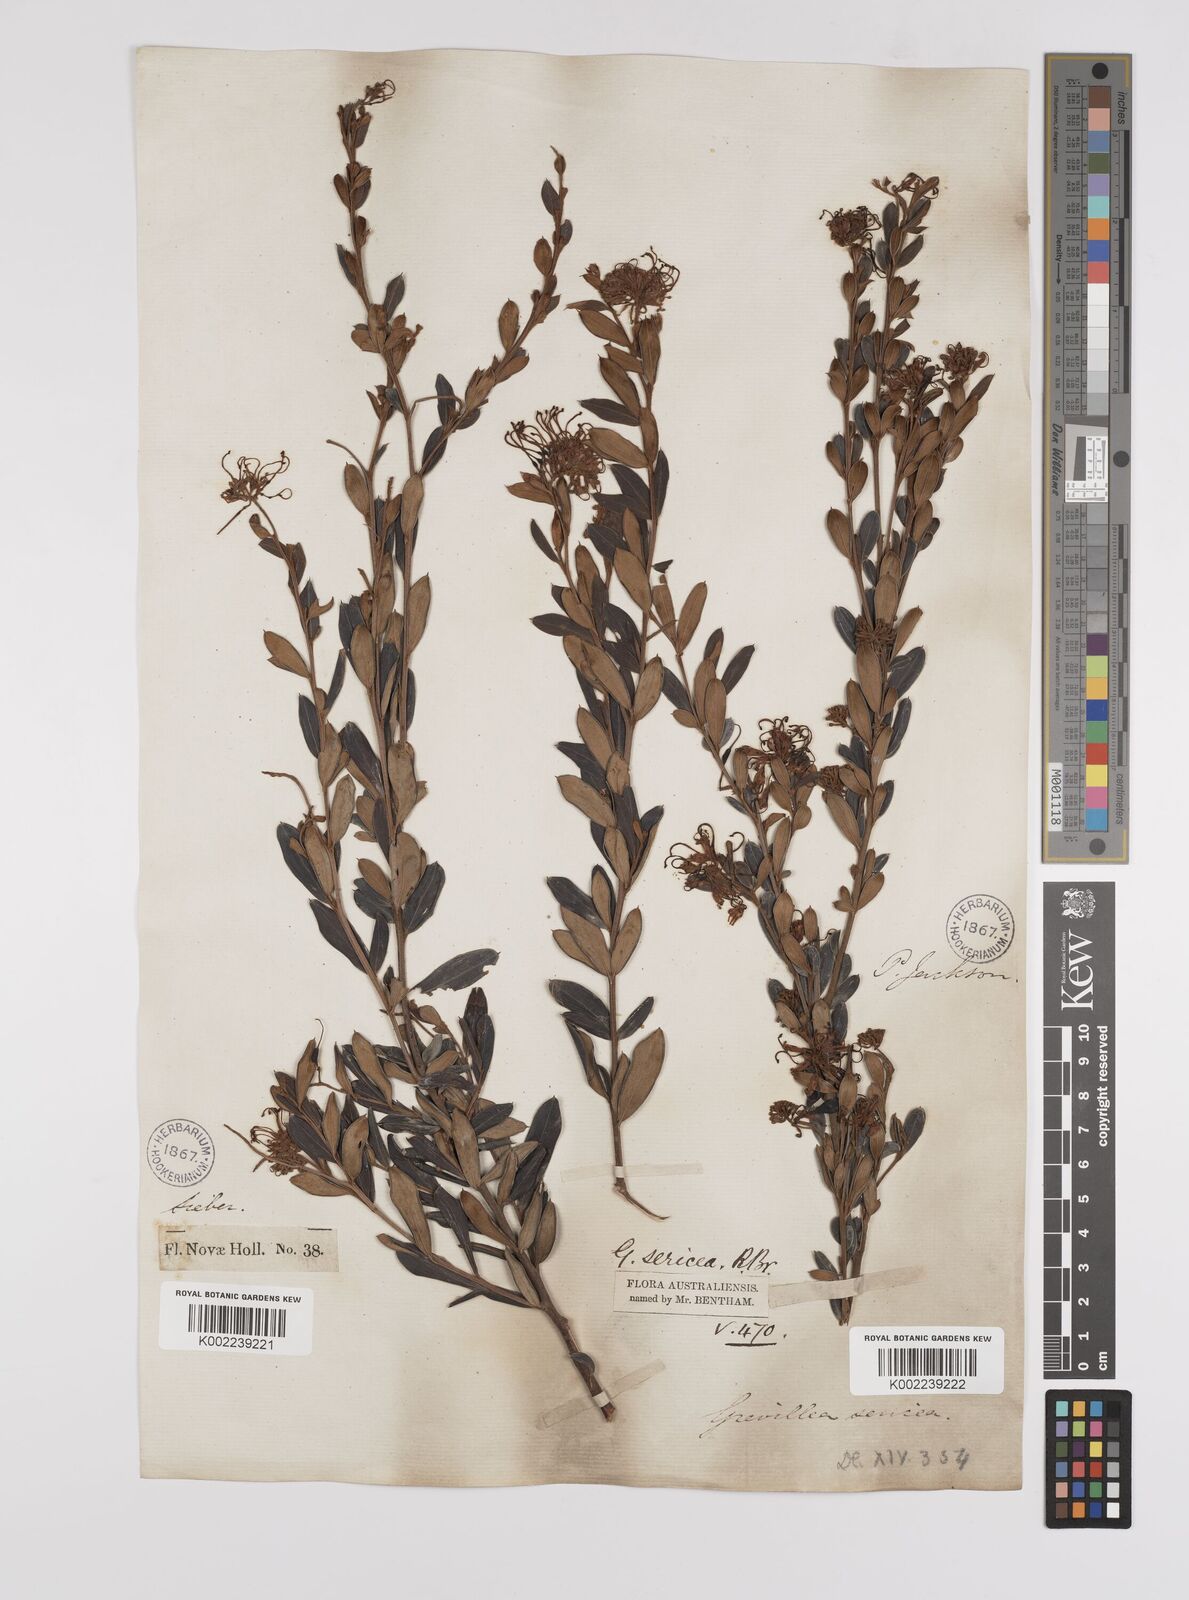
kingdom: Plantae
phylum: Tracheophyta
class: Magnoliopsida
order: Proteales
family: Proteaceae
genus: Grevillea
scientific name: Grevillea sericea
